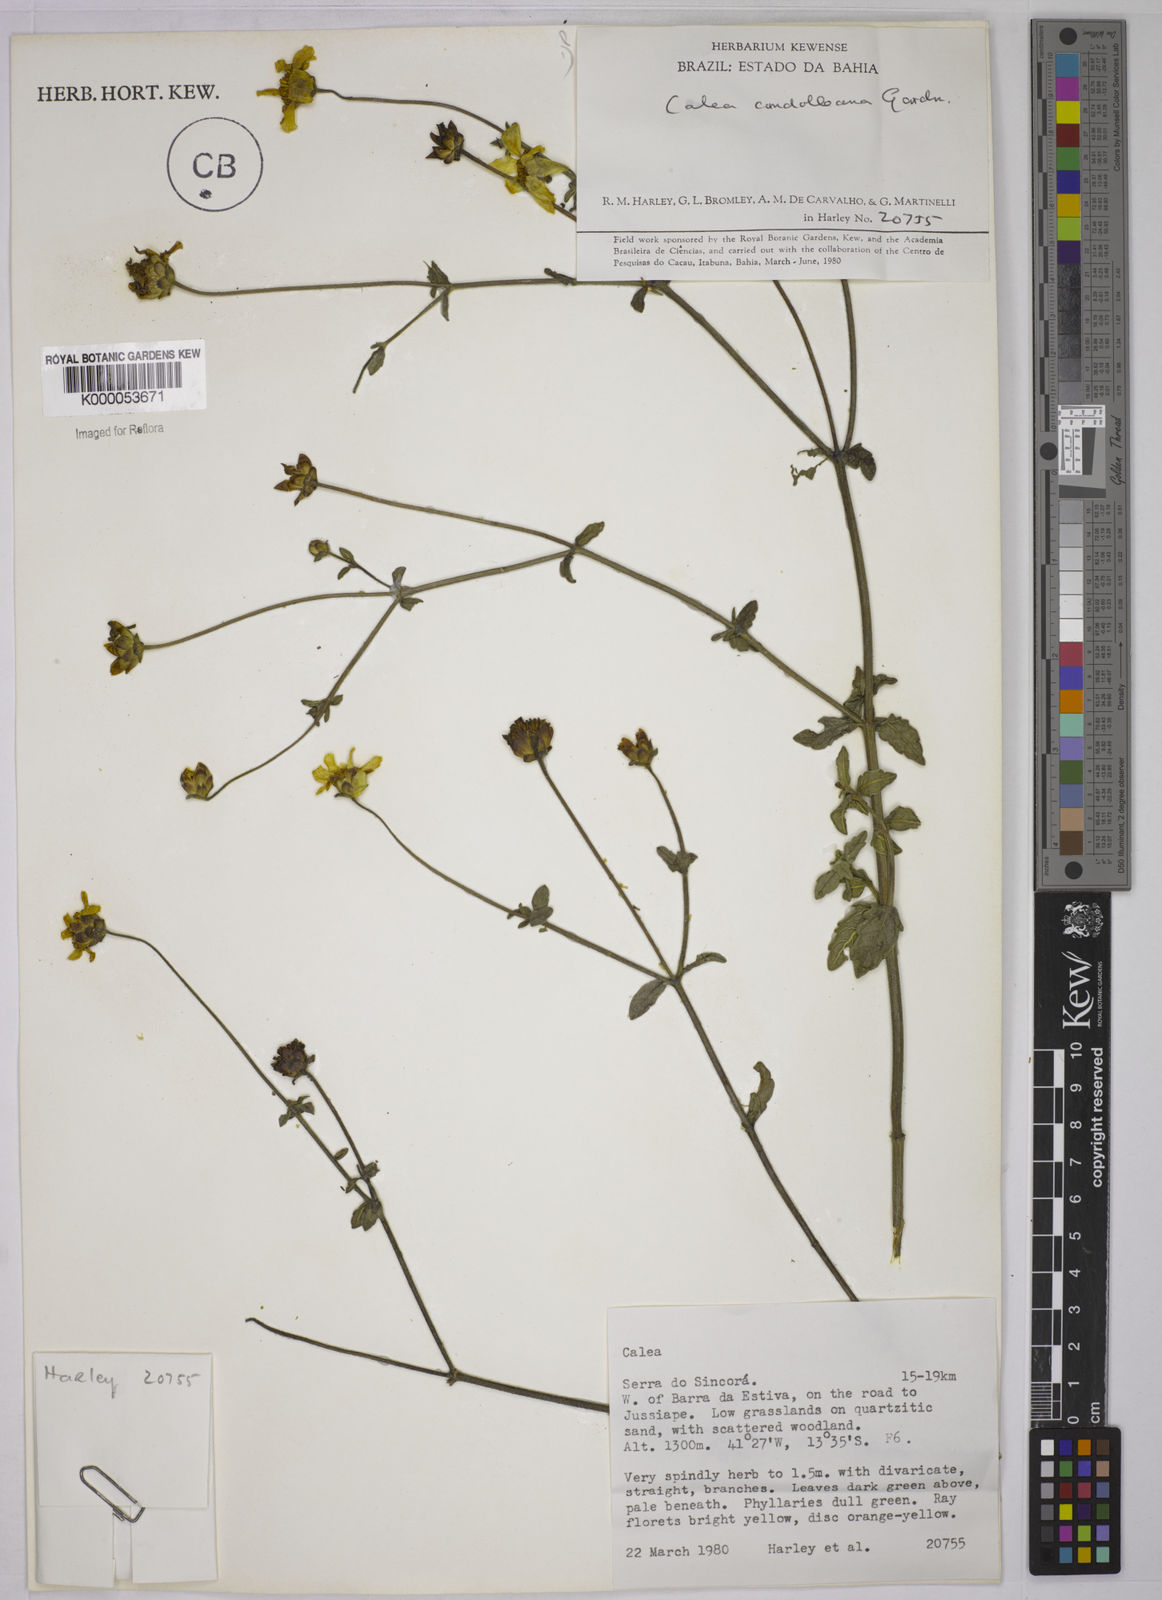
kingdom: Plantae
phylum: Tracheophyta
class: Magnoliopsida
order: Asterales
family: Asteraceae
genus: Calea
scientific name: Calea candolleana
